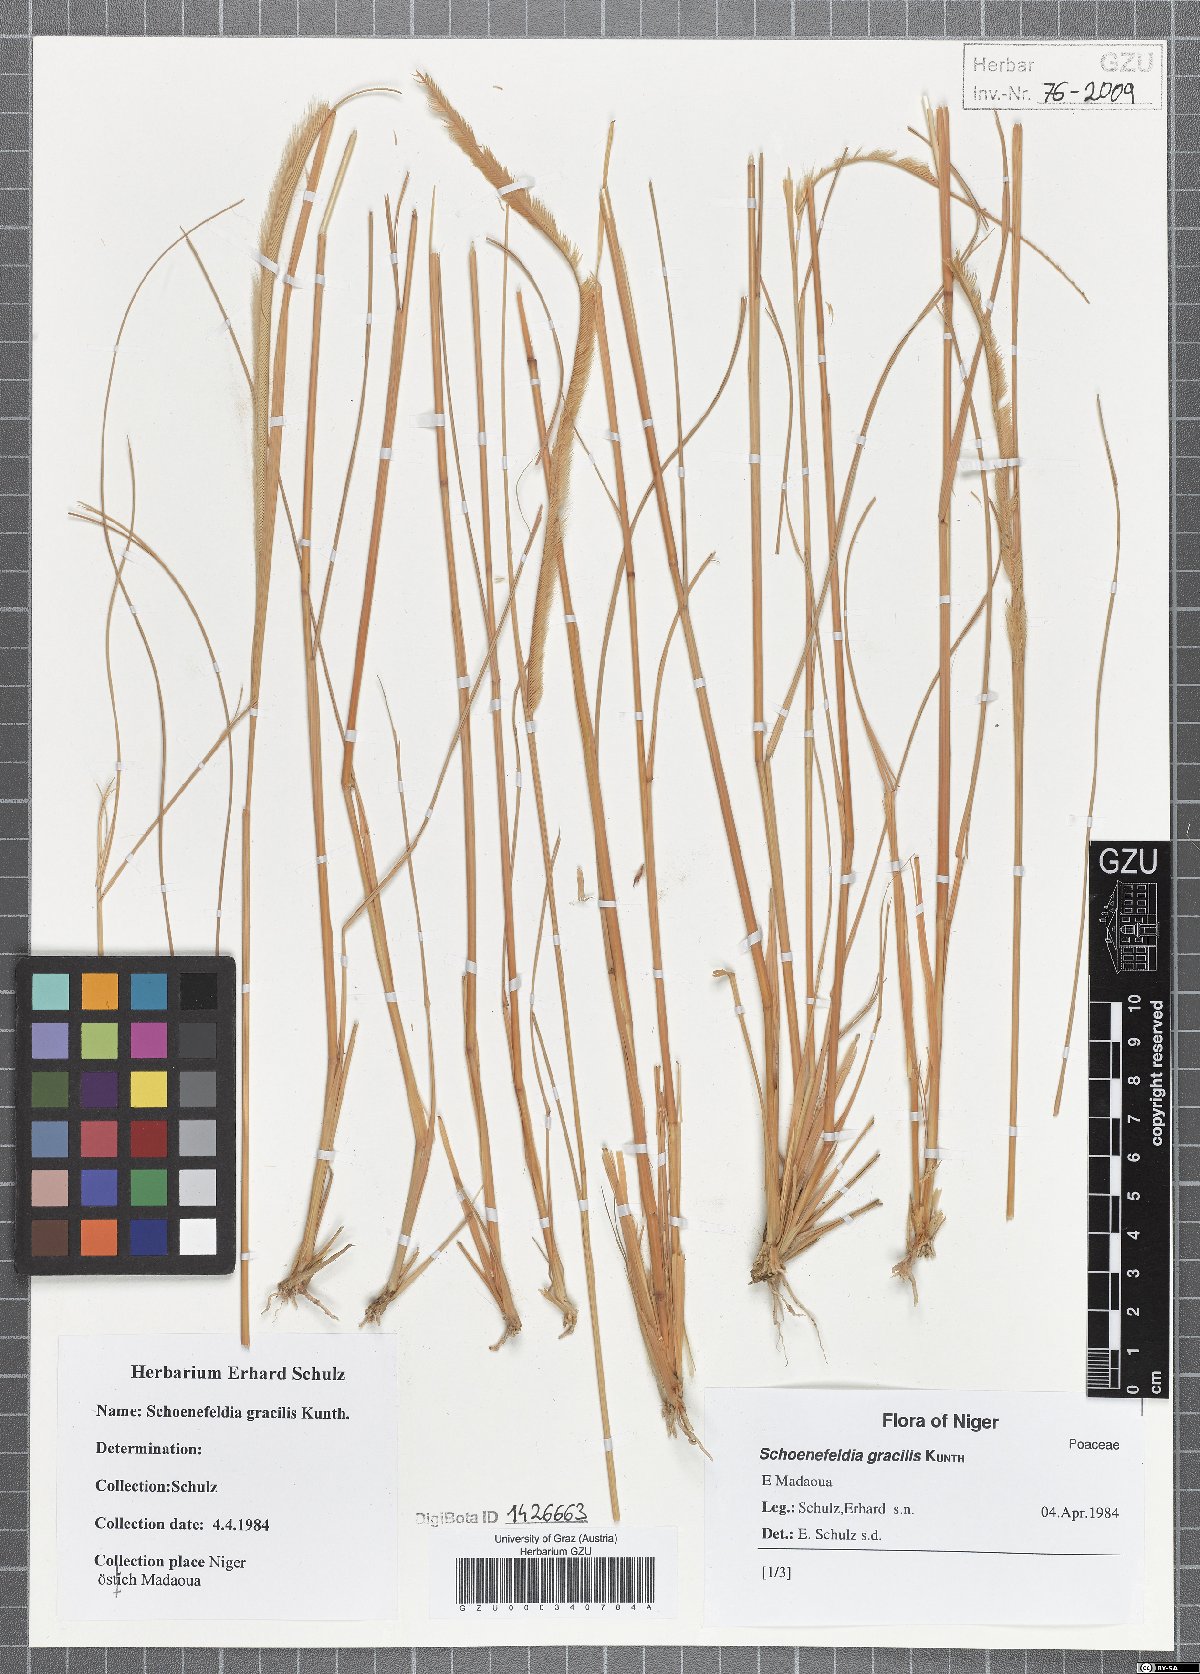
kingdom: Plantae
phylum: Tracheophyta
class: Liliopsida
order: Poales
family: Poaceae
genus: Schoenefeldia
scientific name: Schoenefeldia gracilis
